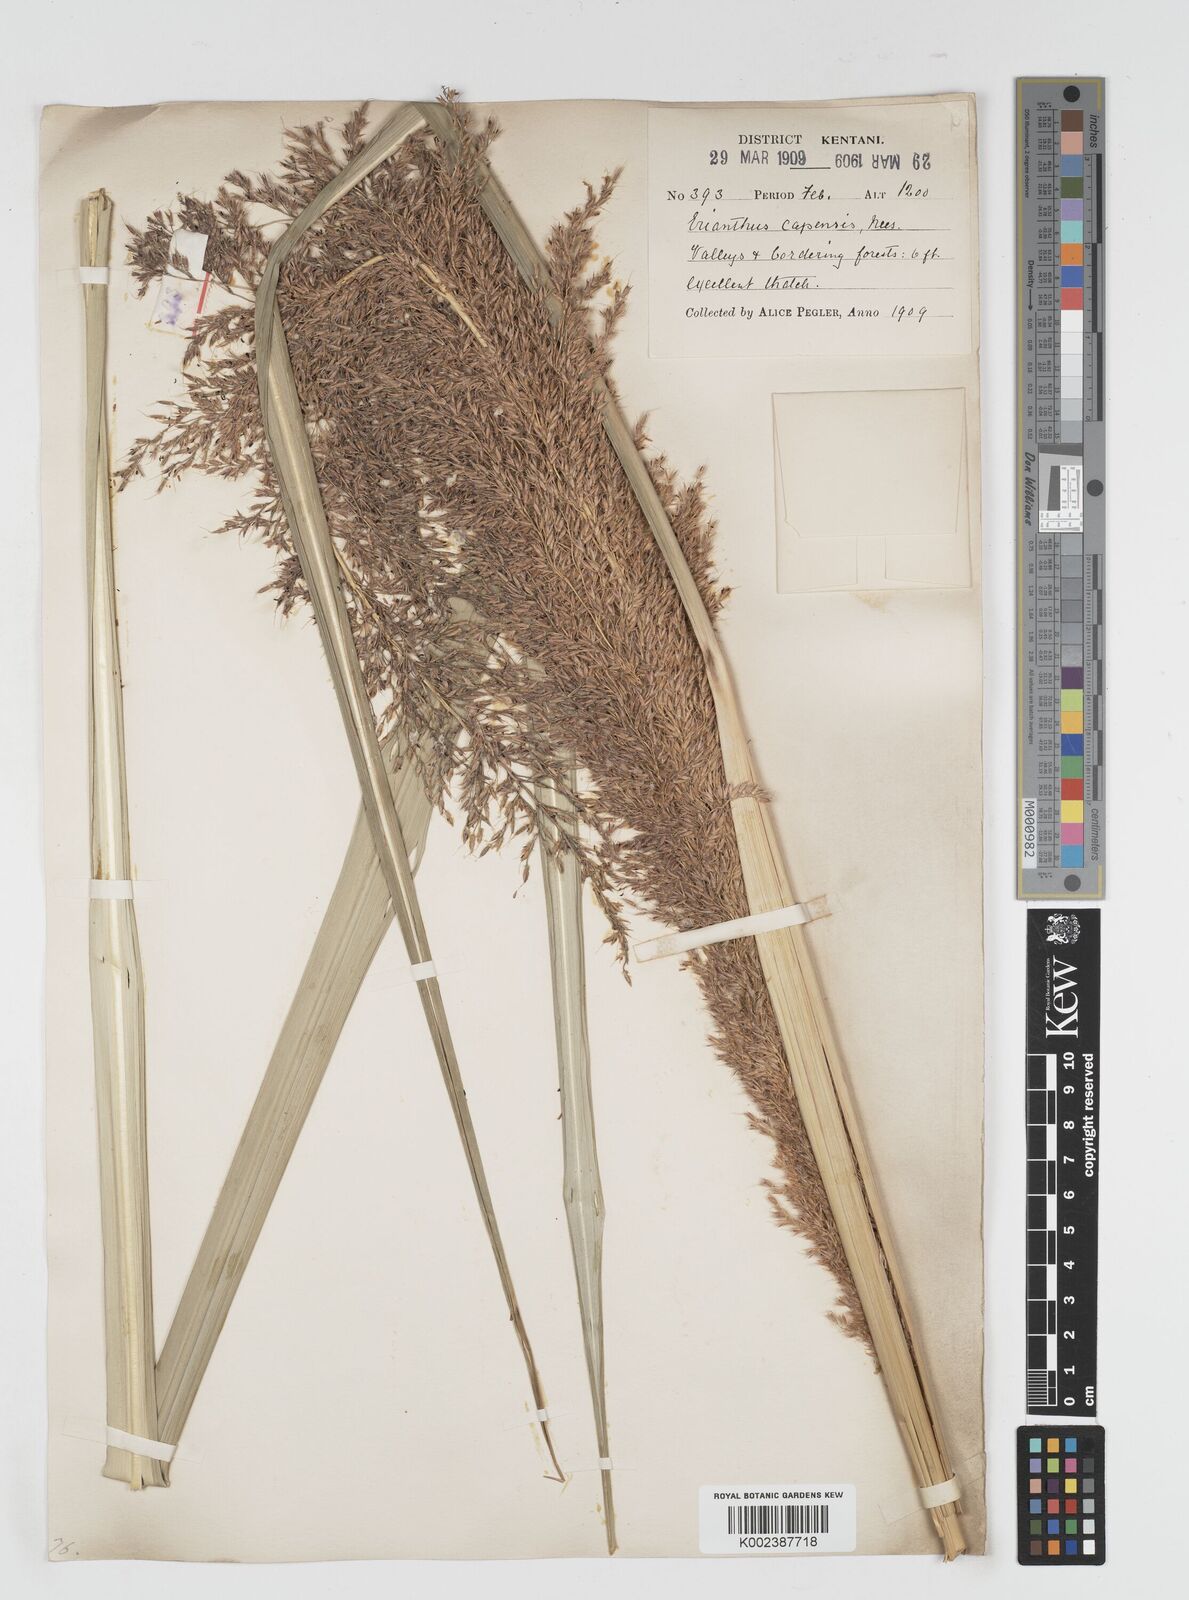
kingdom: Plantae
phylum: Tracheophyta
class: Liliopsida
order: Poales
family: Poaceae
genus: Miscanthus
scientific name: Miscanthus ecklonii
